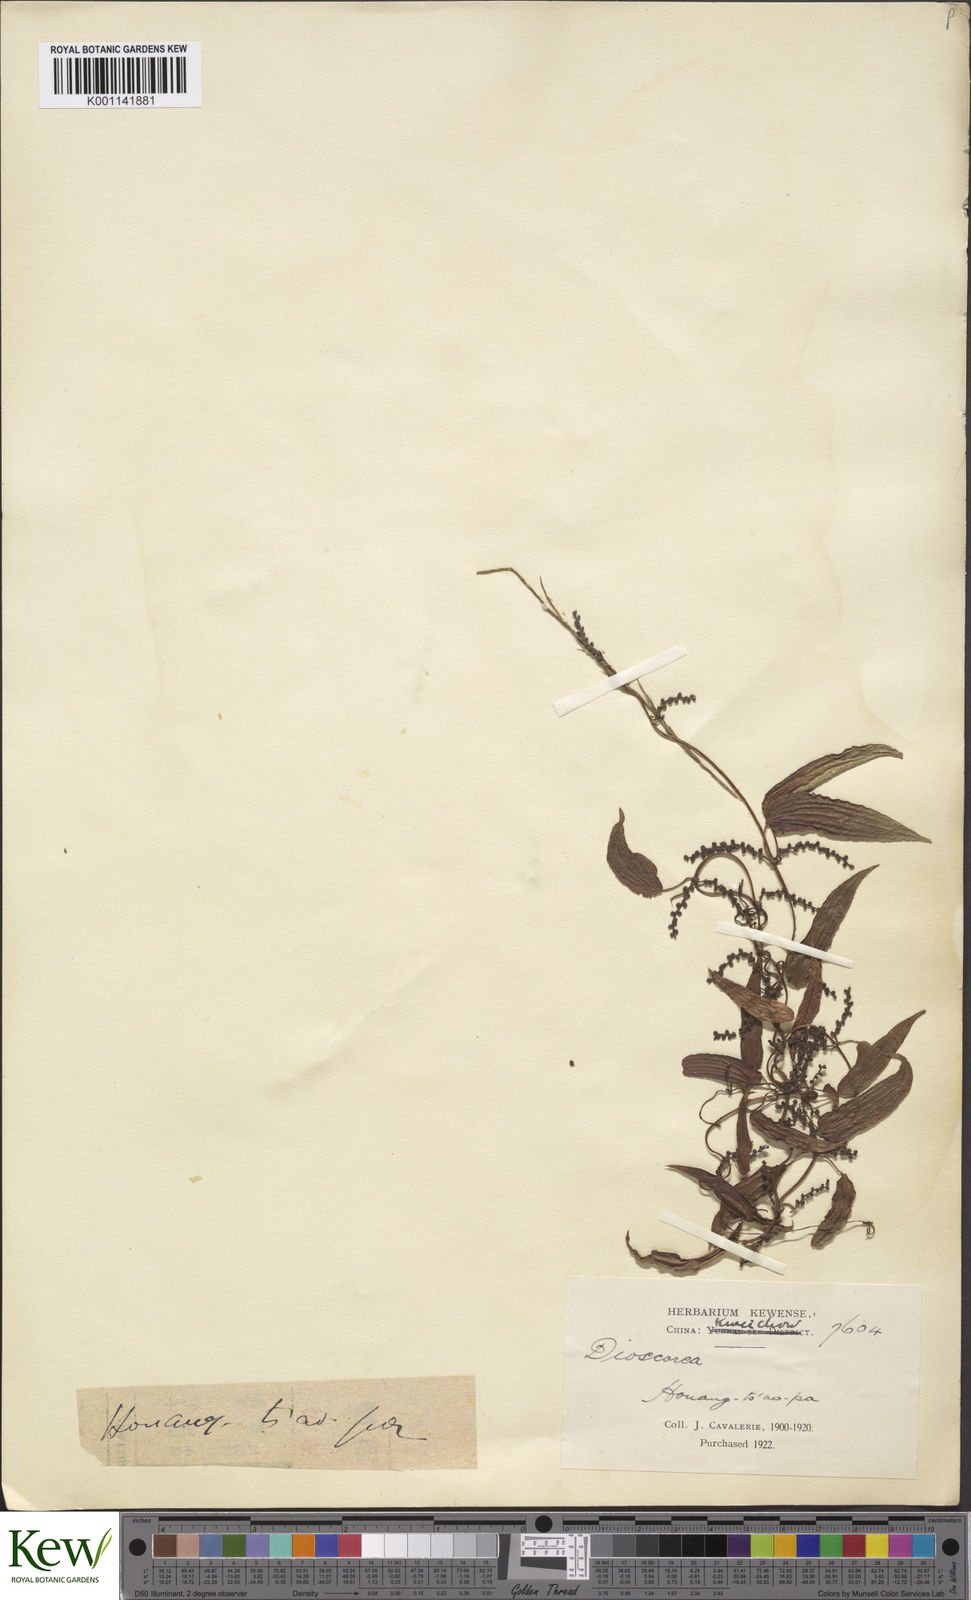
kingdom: Plantae
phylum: Tracheophyta
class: Liliopsida
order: Dioscoreales
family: Dioscoreaceae
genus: Dioscorea
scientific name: Dioscorea japonica
